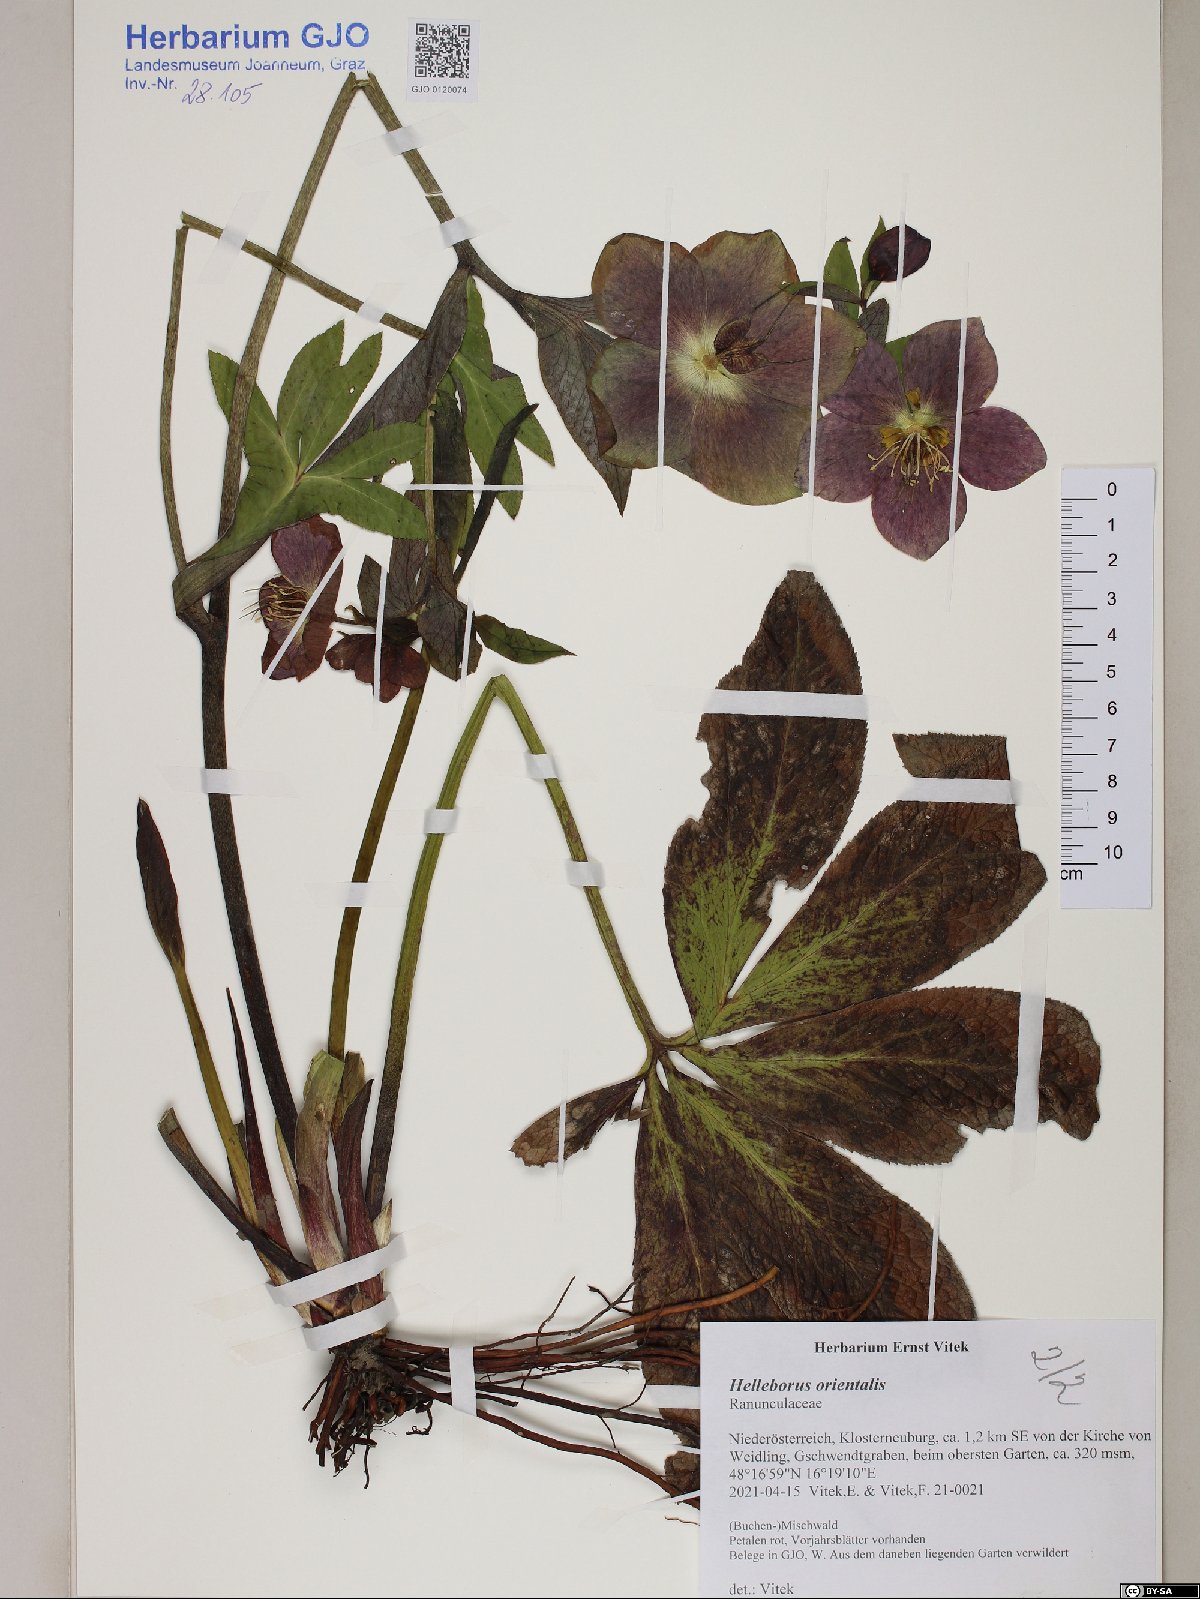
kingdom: Plantae
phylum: Tracheophyta
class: Magnoliopsida
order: Ranunculales
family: Ranunculaceae
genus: Helleborus
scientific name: Helleborus orientalis
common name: Lenten-rose
